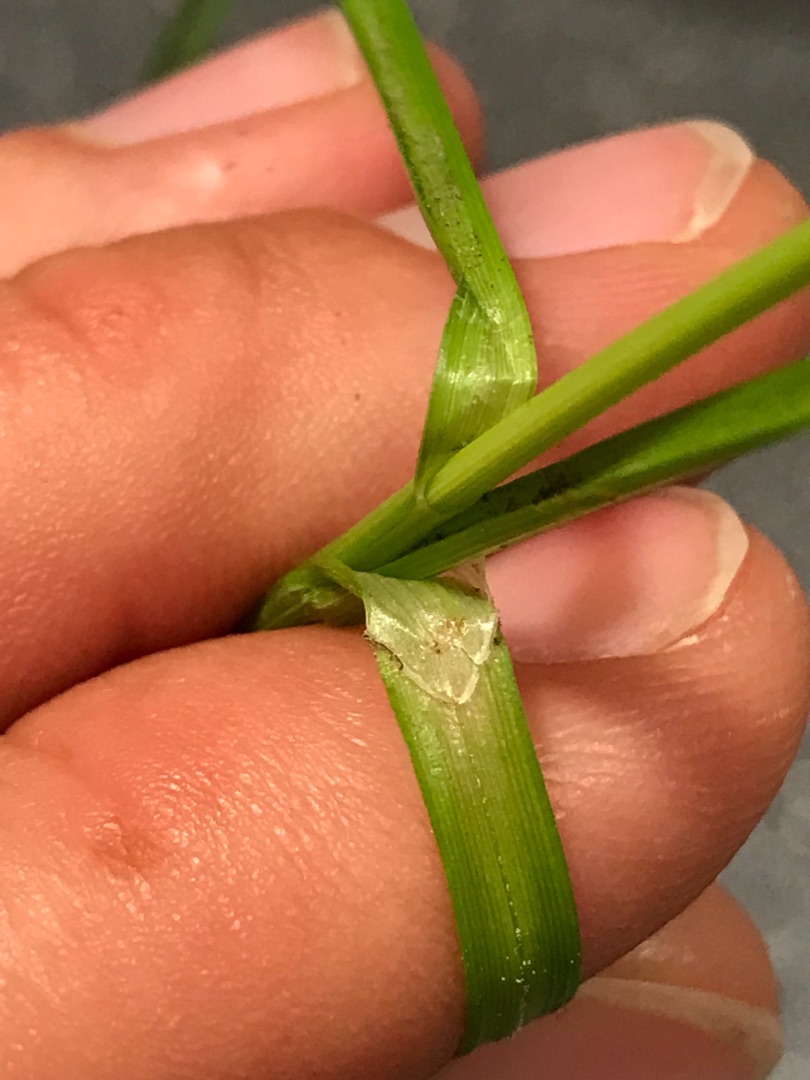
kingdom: Plantae
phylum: Tracheophyta
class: Liliopsida
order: Poales
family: Cyperaceae
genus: Carex
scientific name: Carex divulsa
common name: Mellembrudt star
